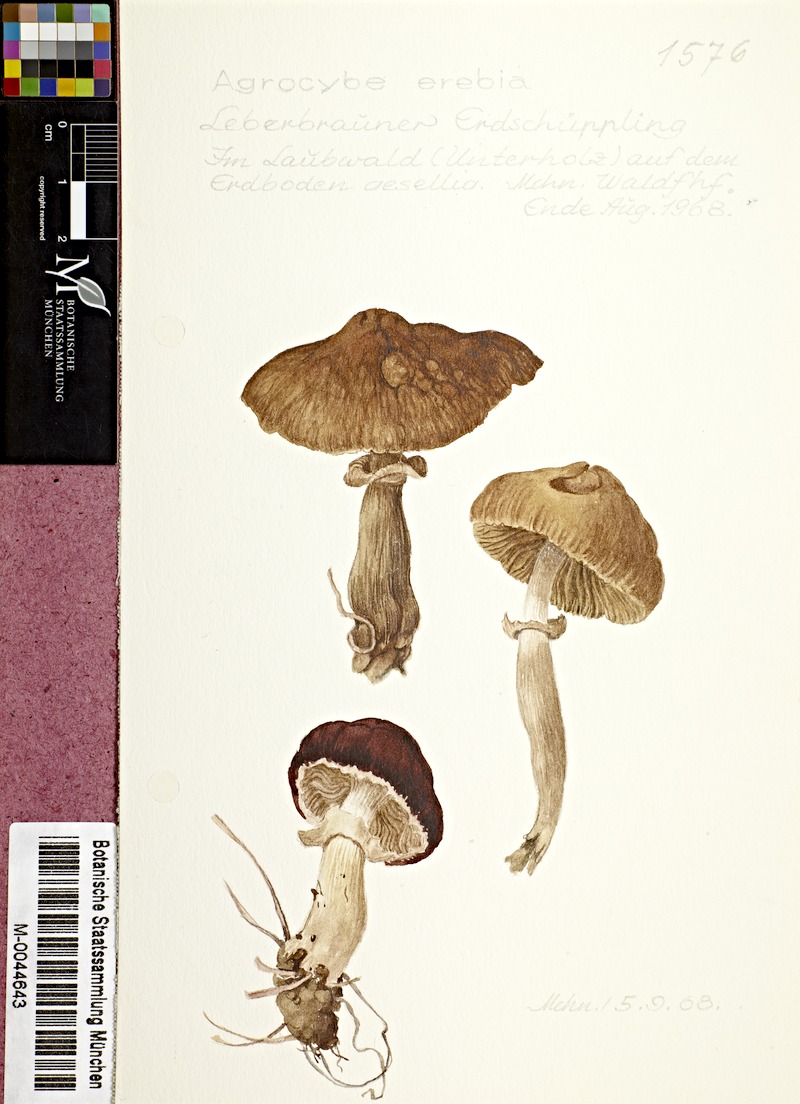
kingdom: Fungi
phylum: Basidiomycota
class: Agaricomycetes
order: Agaricales
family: Tubariaceae
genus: Cyclocybe
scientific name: Cyclocybe erebia
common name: Dark fieldcap
